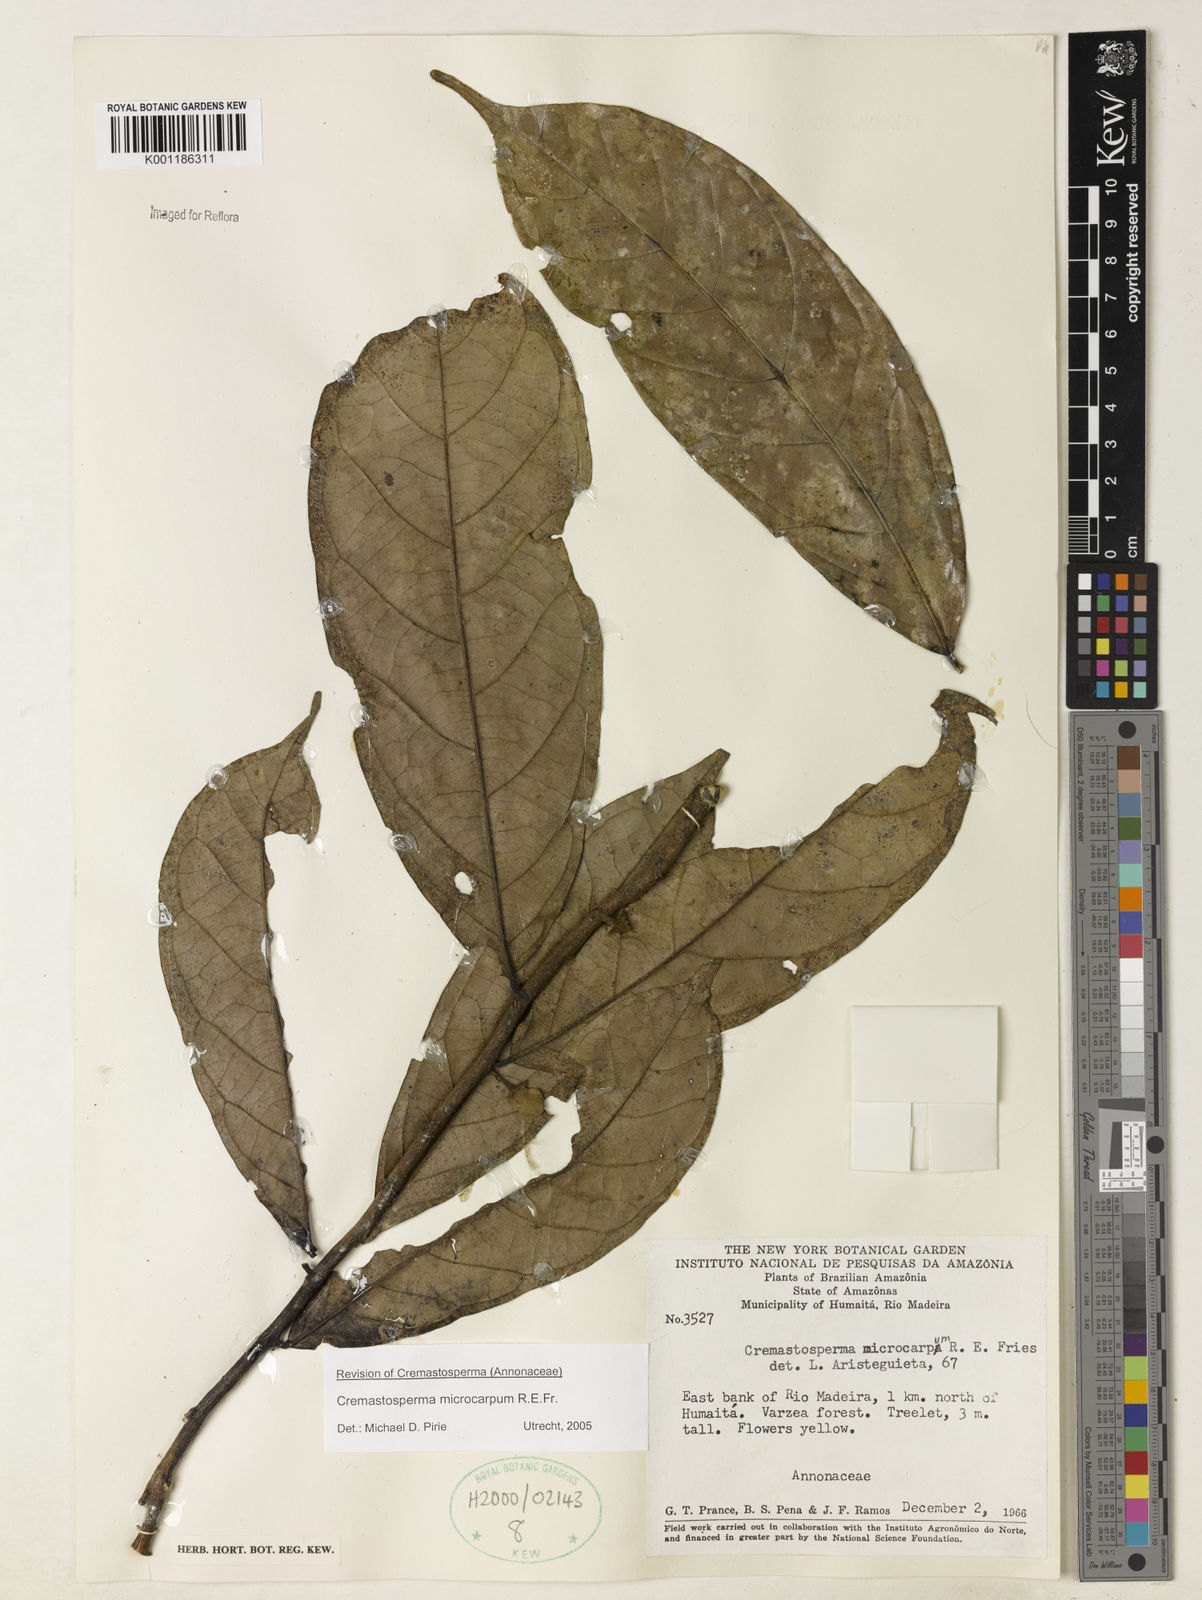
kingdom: Plantae
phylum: Tracheophyta
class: Magnoliopsida
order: Magnoliales
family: Annonaceae
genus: Cremastosperma
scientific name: Cremastosperma microcarpum
